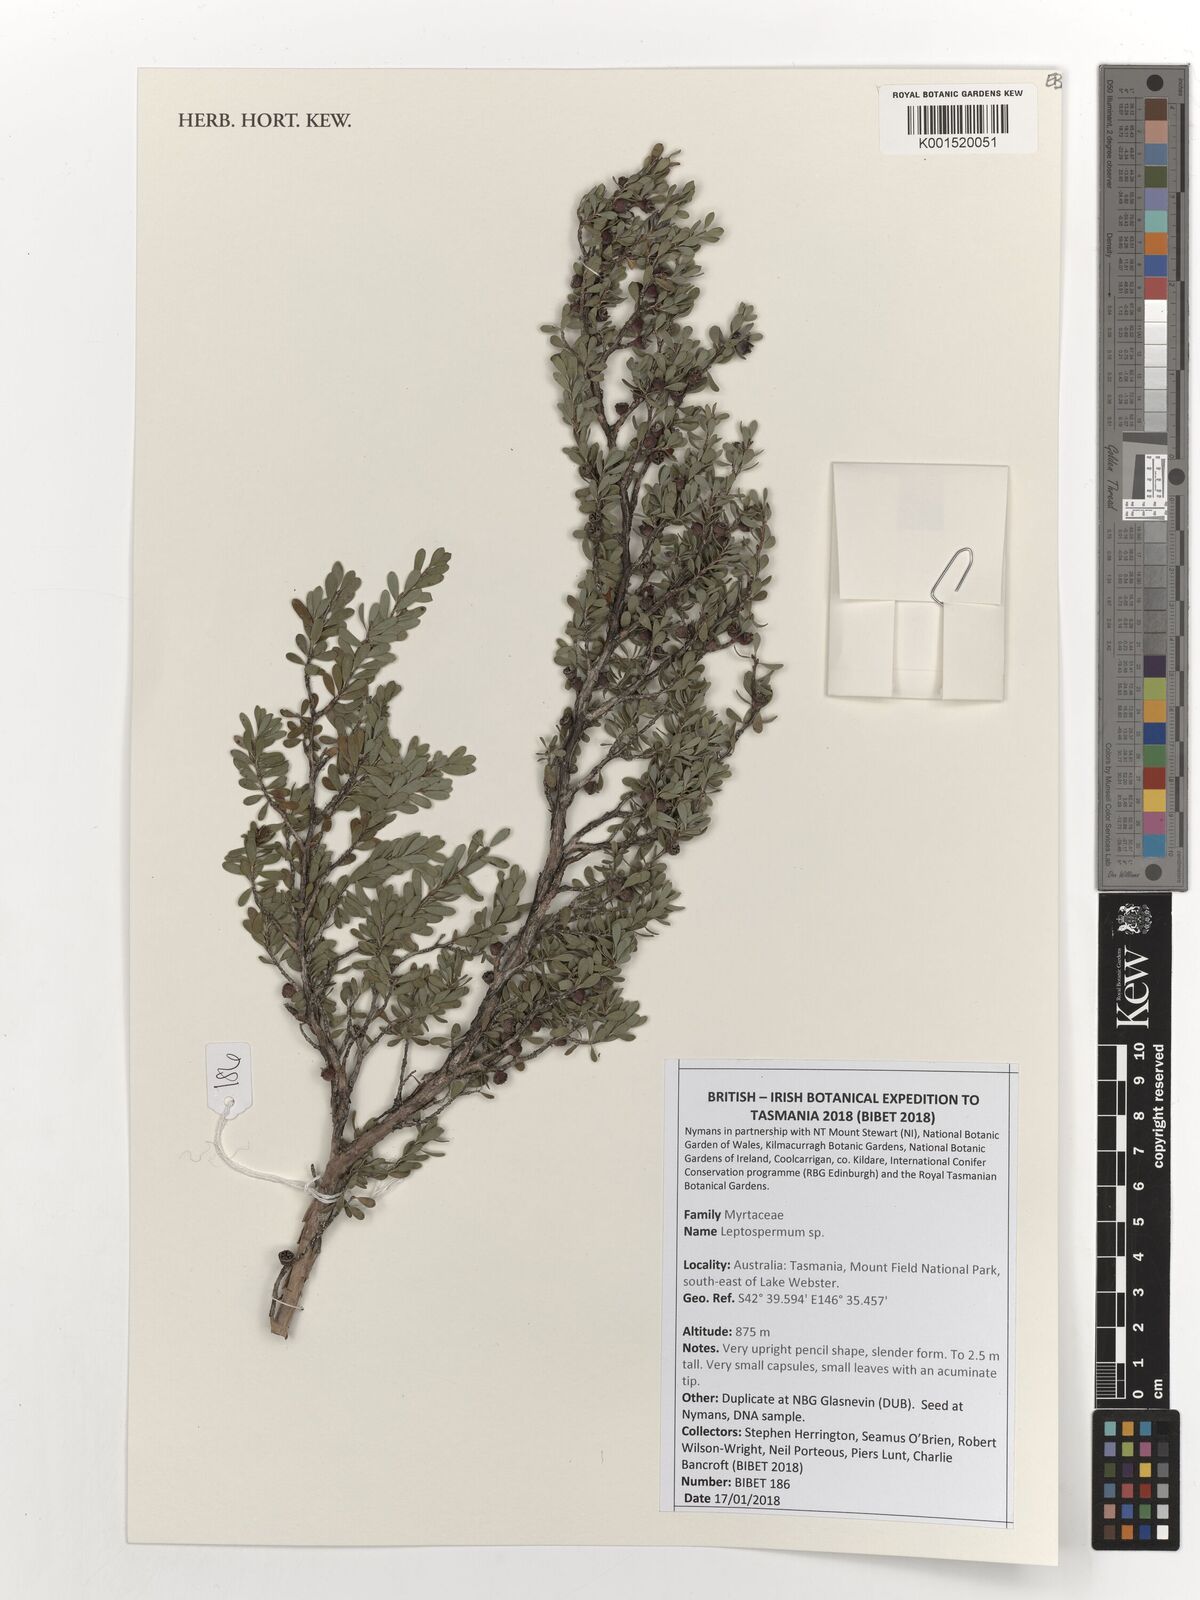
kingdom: Plantae
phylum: Tracheophyta
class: Magnoliopsida
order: Myrtales
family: Myrtaceae
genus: Leptospermum
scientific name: Leptospermum
